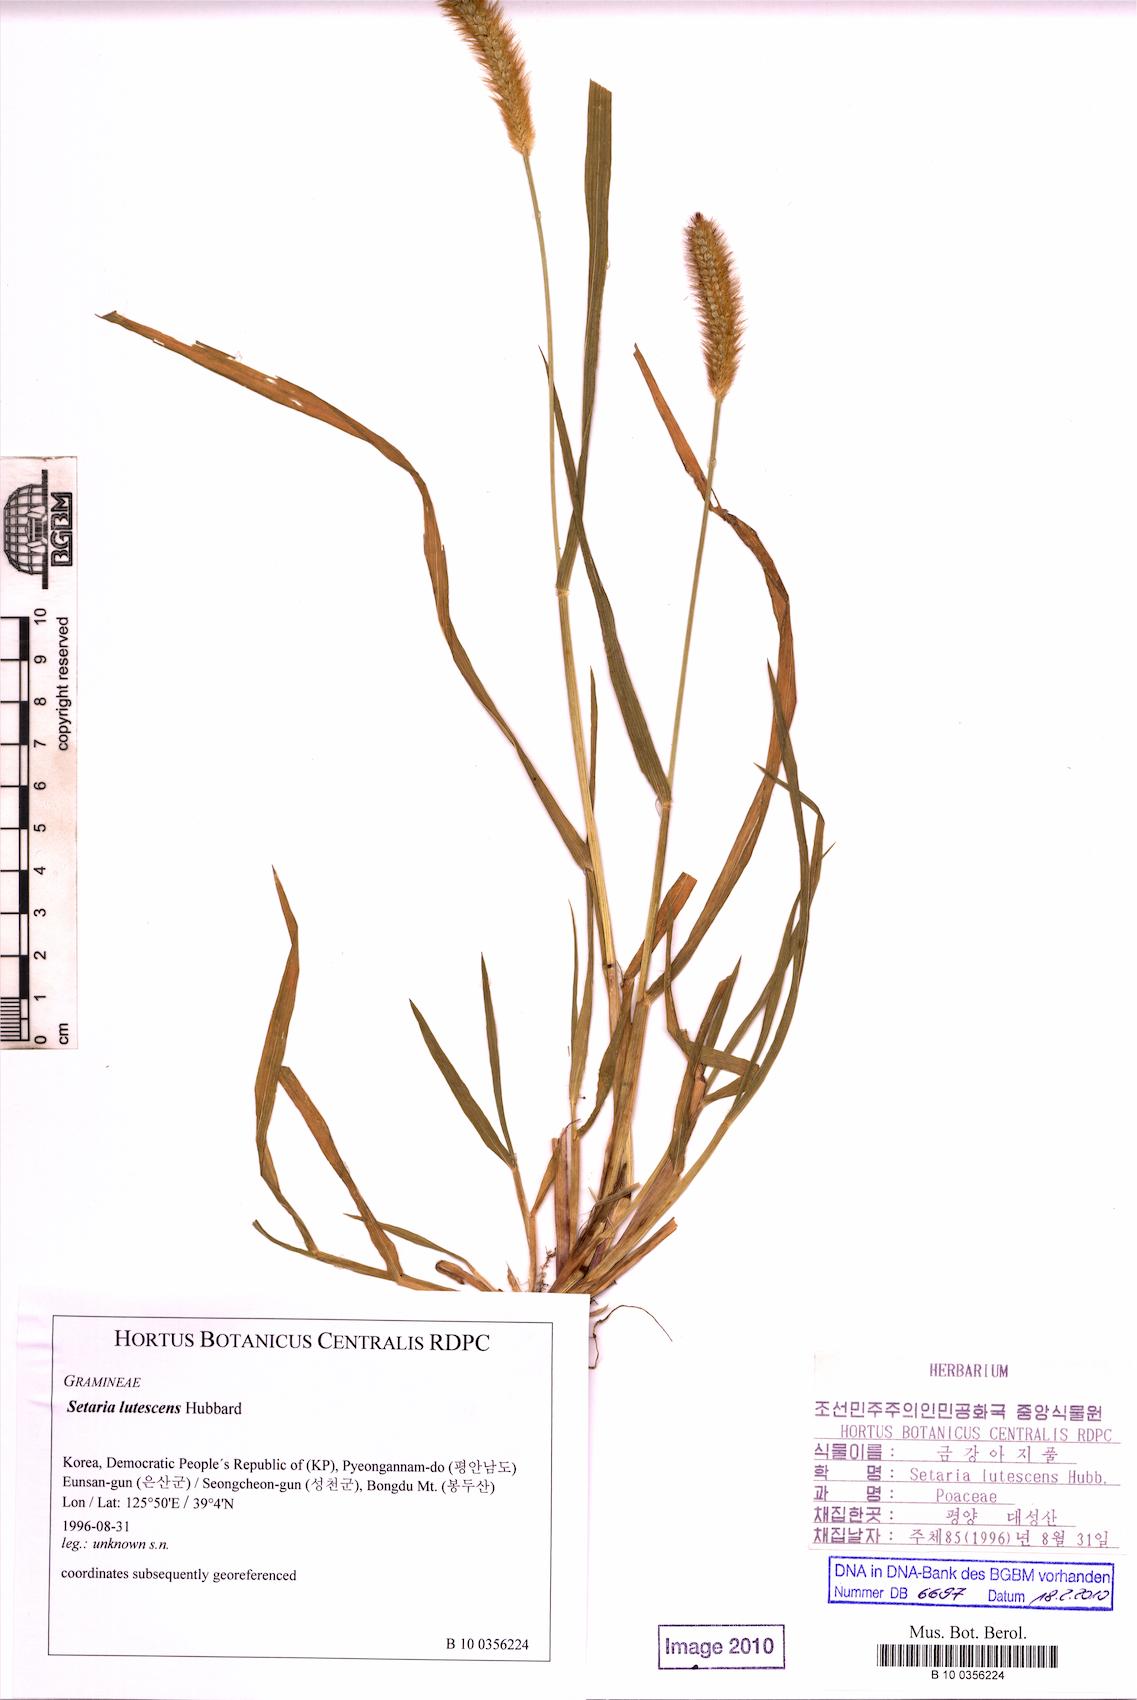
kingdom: Plantae
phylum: Tracheophyta
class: Liliopsida
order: Poales
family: Poaceae
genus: Cenchrus
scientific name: Cenchrus americanus
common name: Pearl millet
